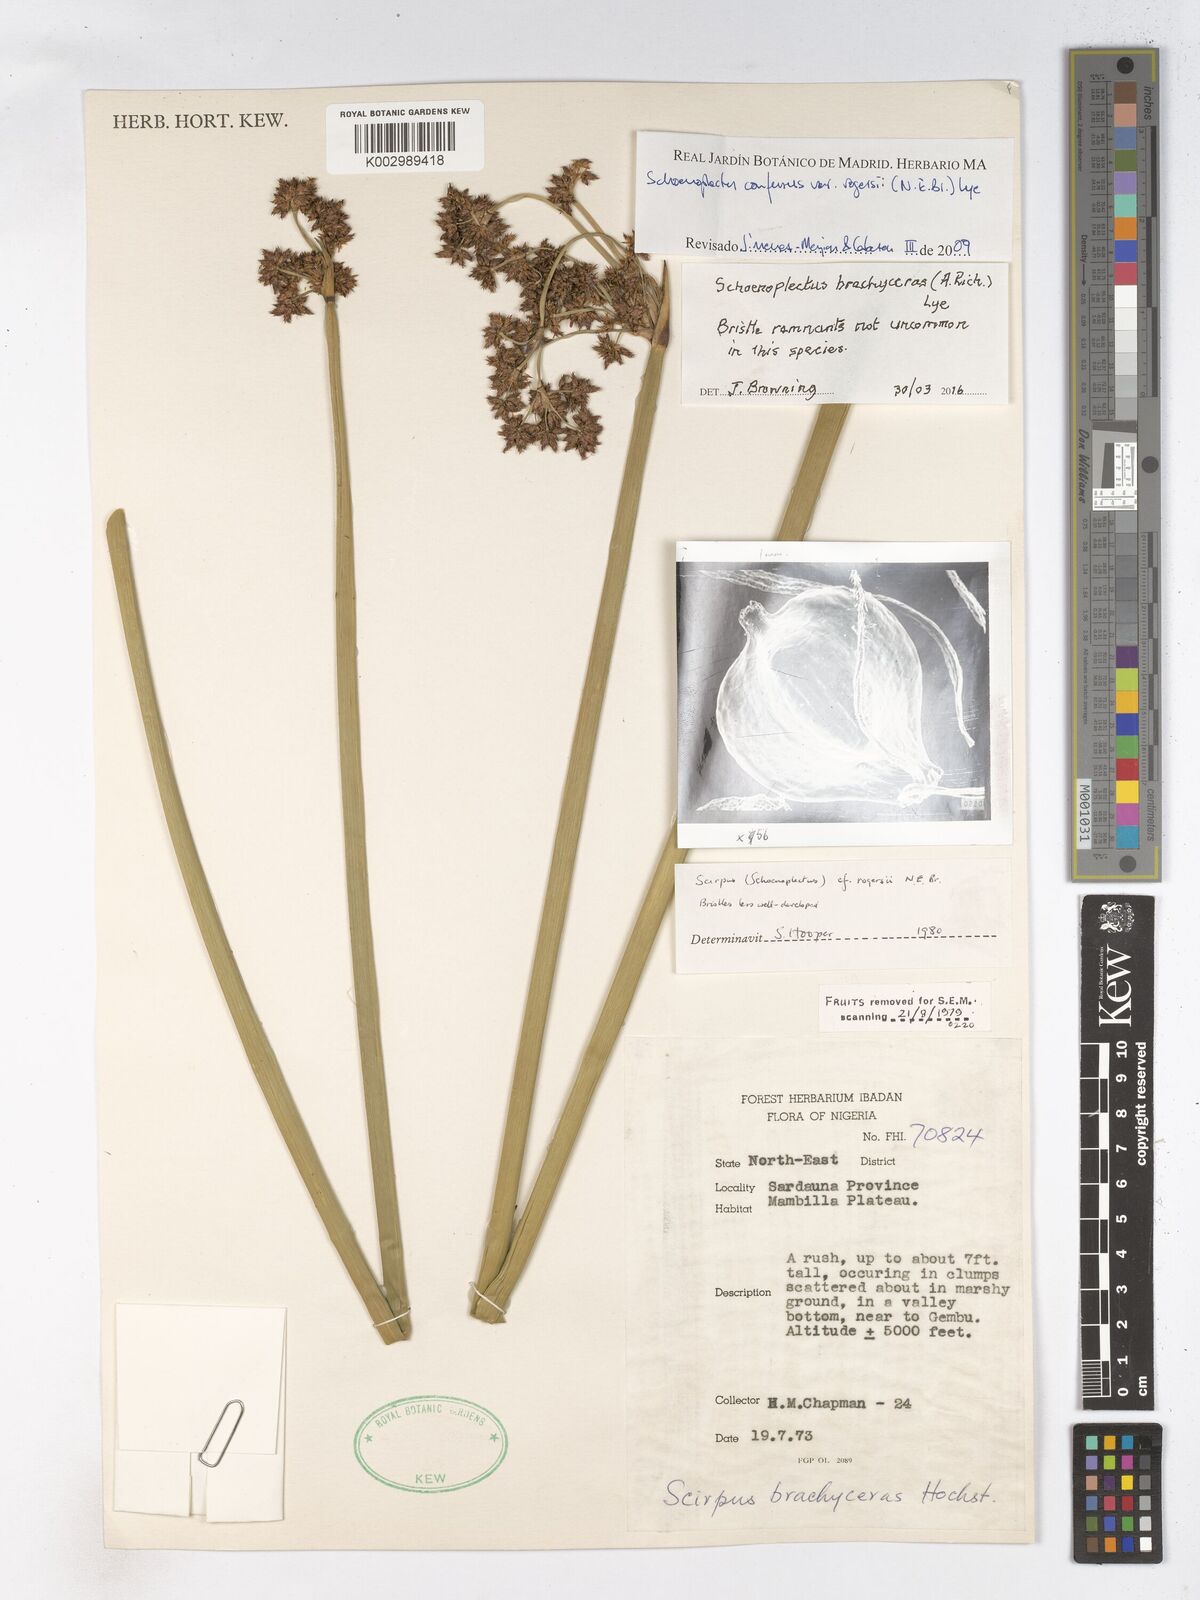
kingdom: Plantae
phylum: Tracheophyta
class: Liliopsida
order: Poales
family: Cyperaceae
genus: Schoenoplectiella
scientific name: Schoenoplectiella corymbosa
